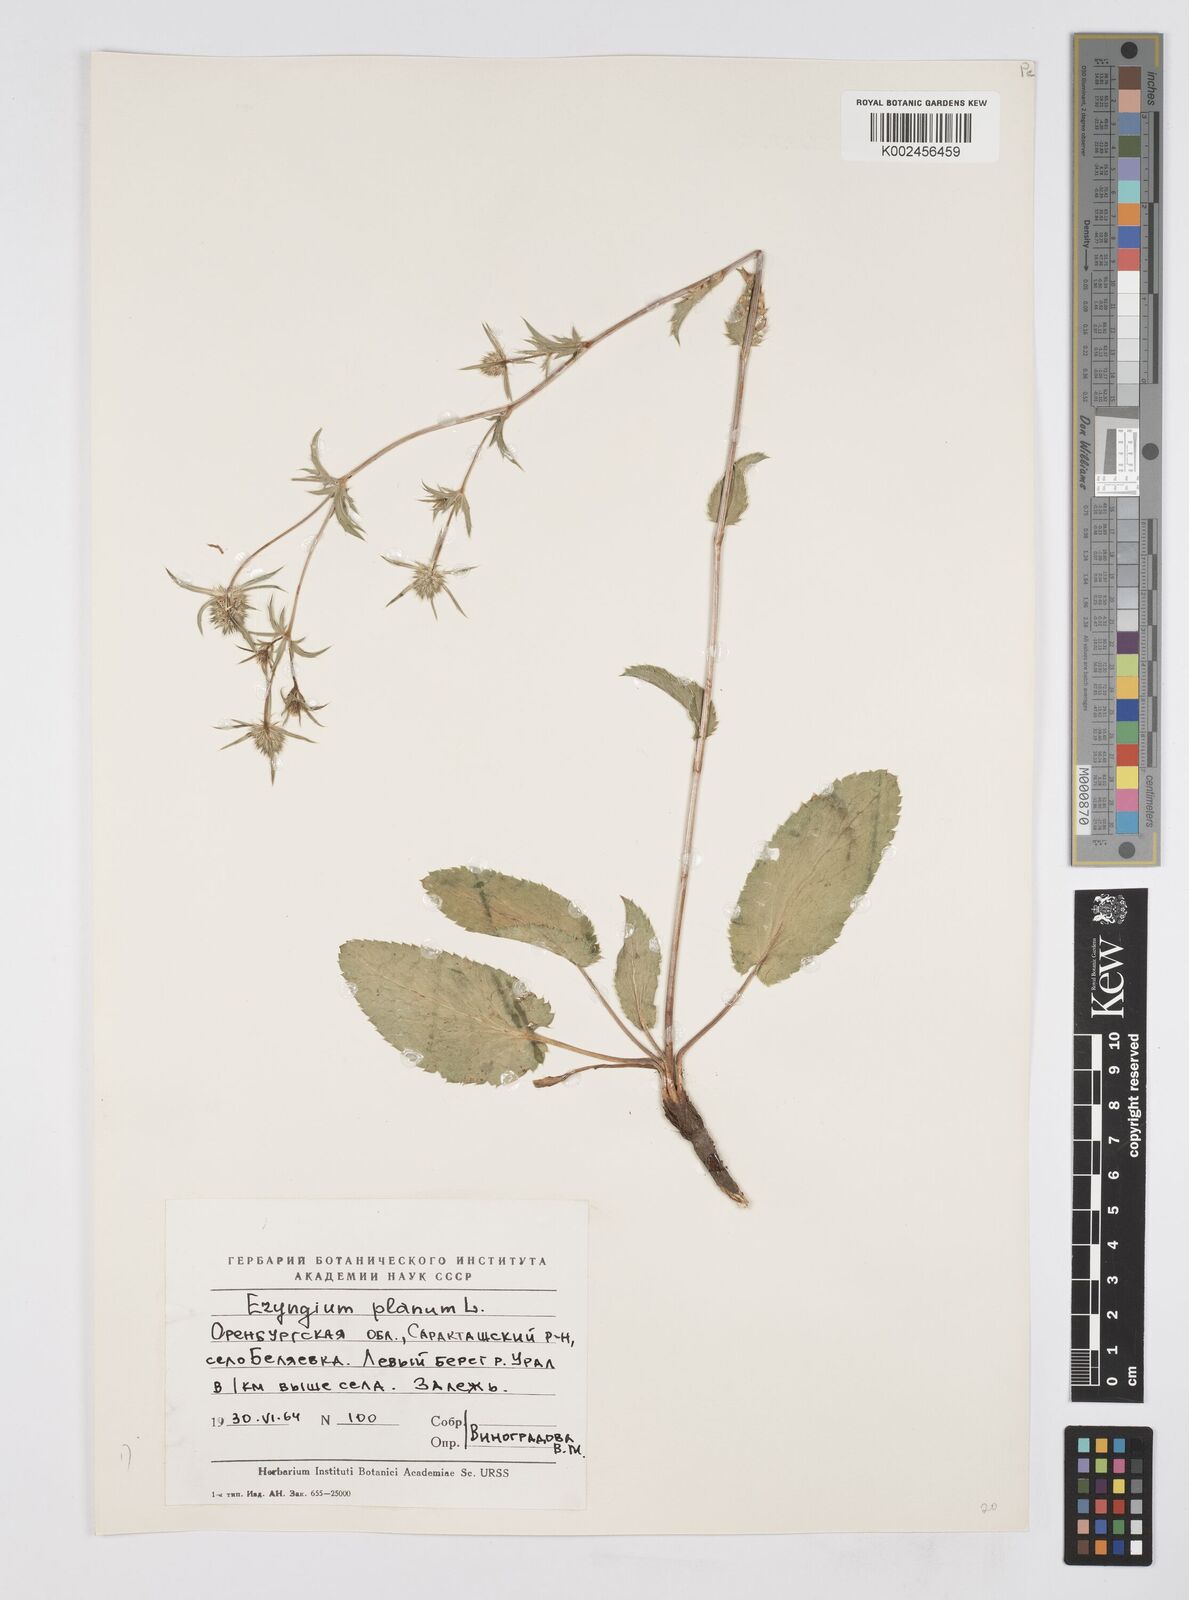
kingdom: Plantae
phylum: Tracheophyta
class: Magnoliopsida
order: Apiales
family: Apiaceae
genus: Eryngium
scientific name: Eryngium planum
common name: Blue eryngo
